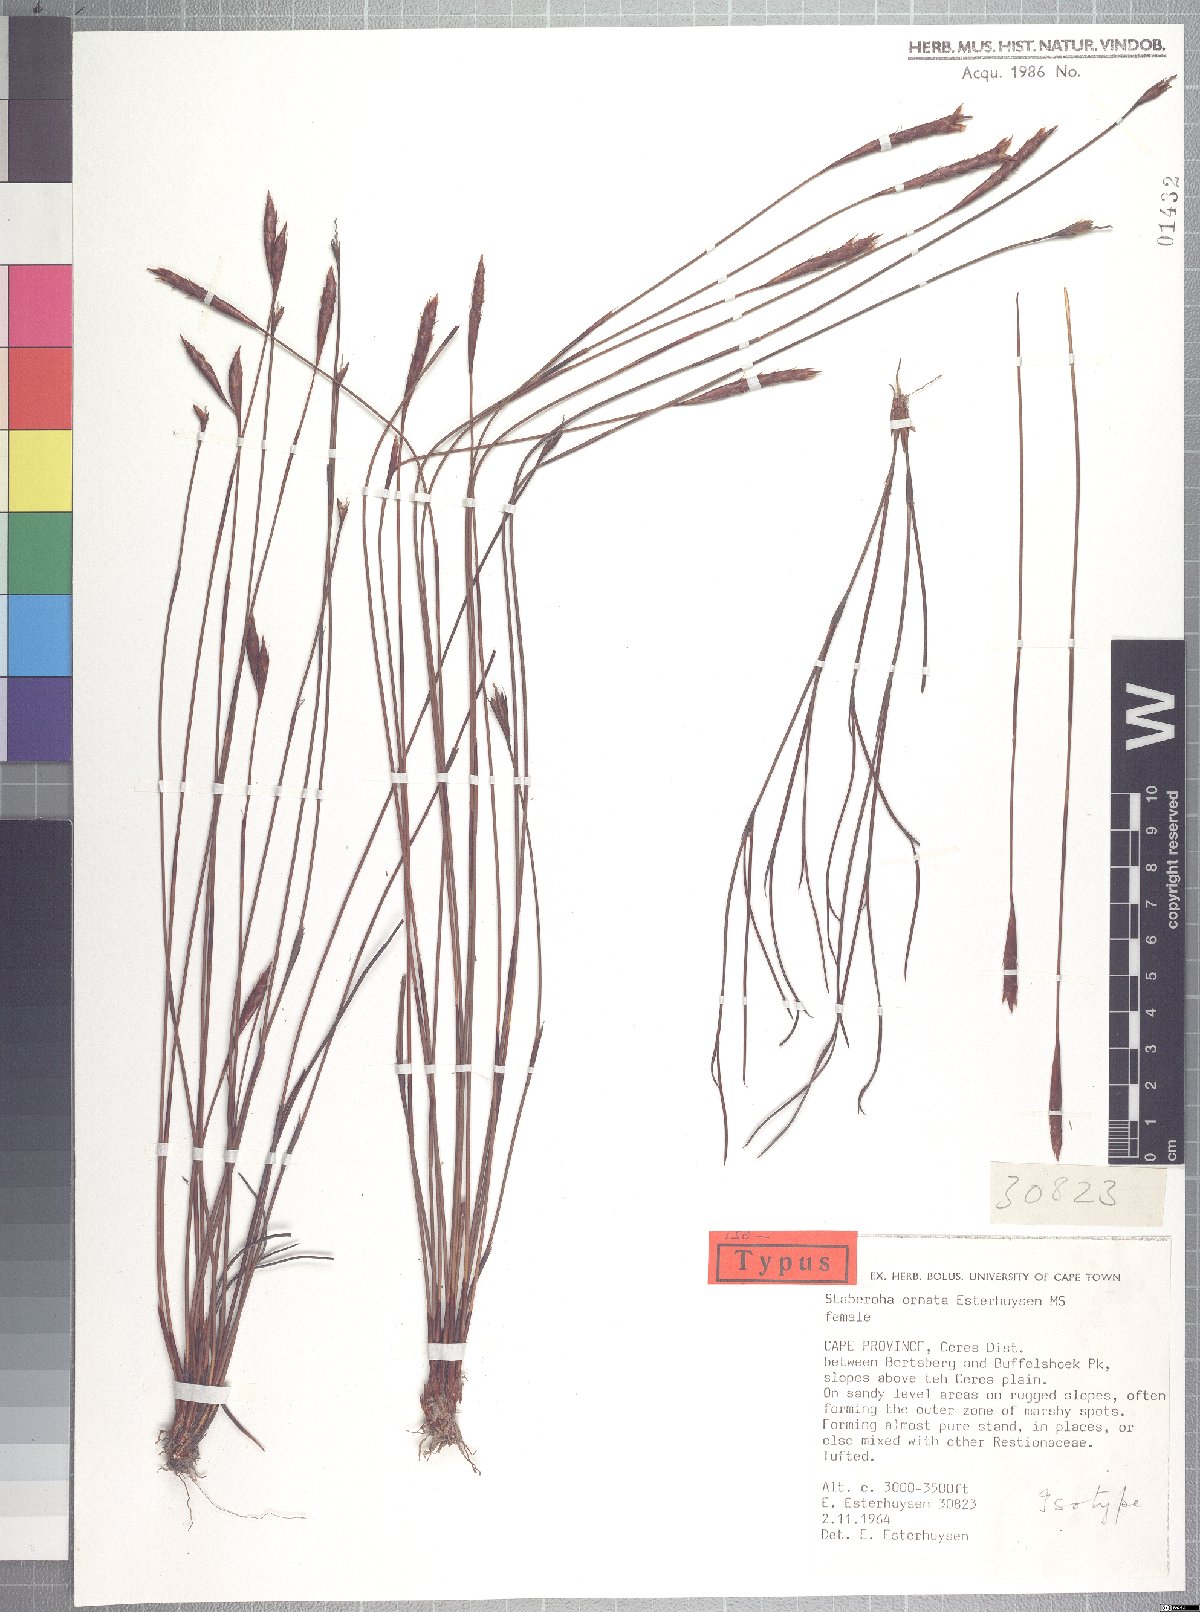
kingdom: Plantae
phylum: Tracheophyta
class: Liliopsida
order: Poales
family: Restionaceae
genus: Staberoha
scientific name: Staberoha ornata
